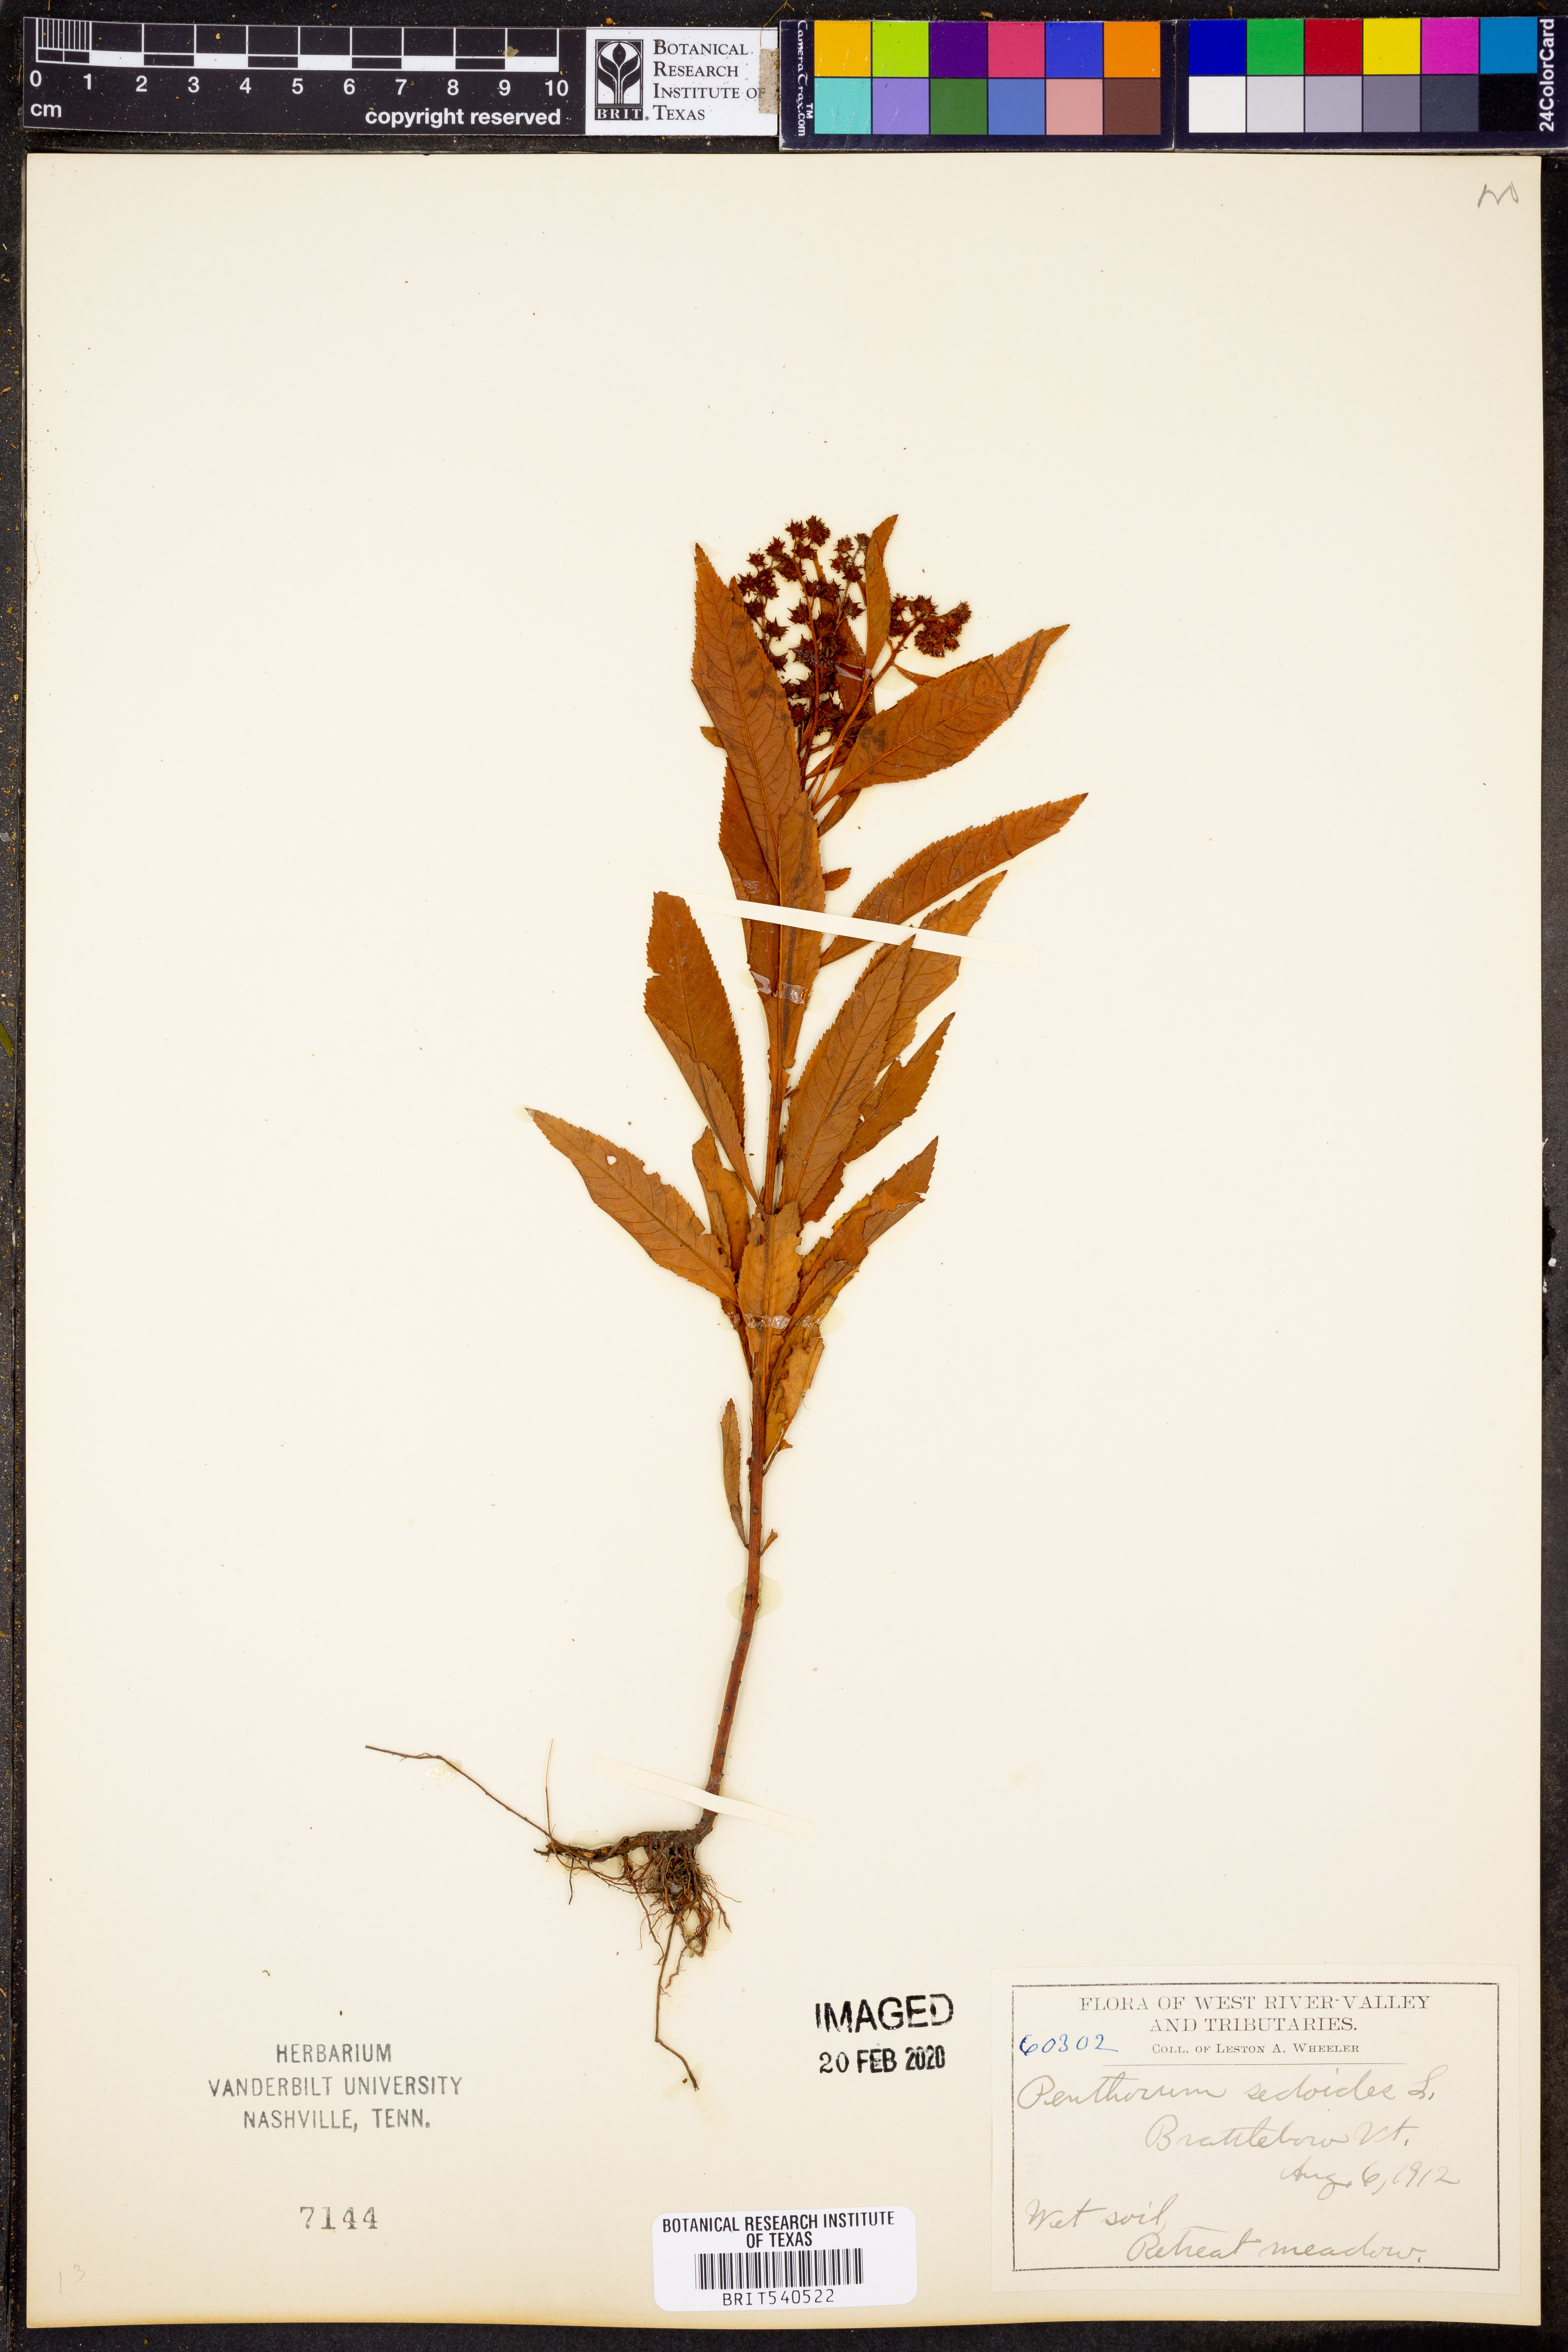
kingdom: Plantae
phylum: Tracheophyta
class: Magnoliopsida
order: Saxifragales
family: Penthoraceae
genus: Penthorum
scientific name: Penthorum sedoides
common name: Ditch stonecrop
